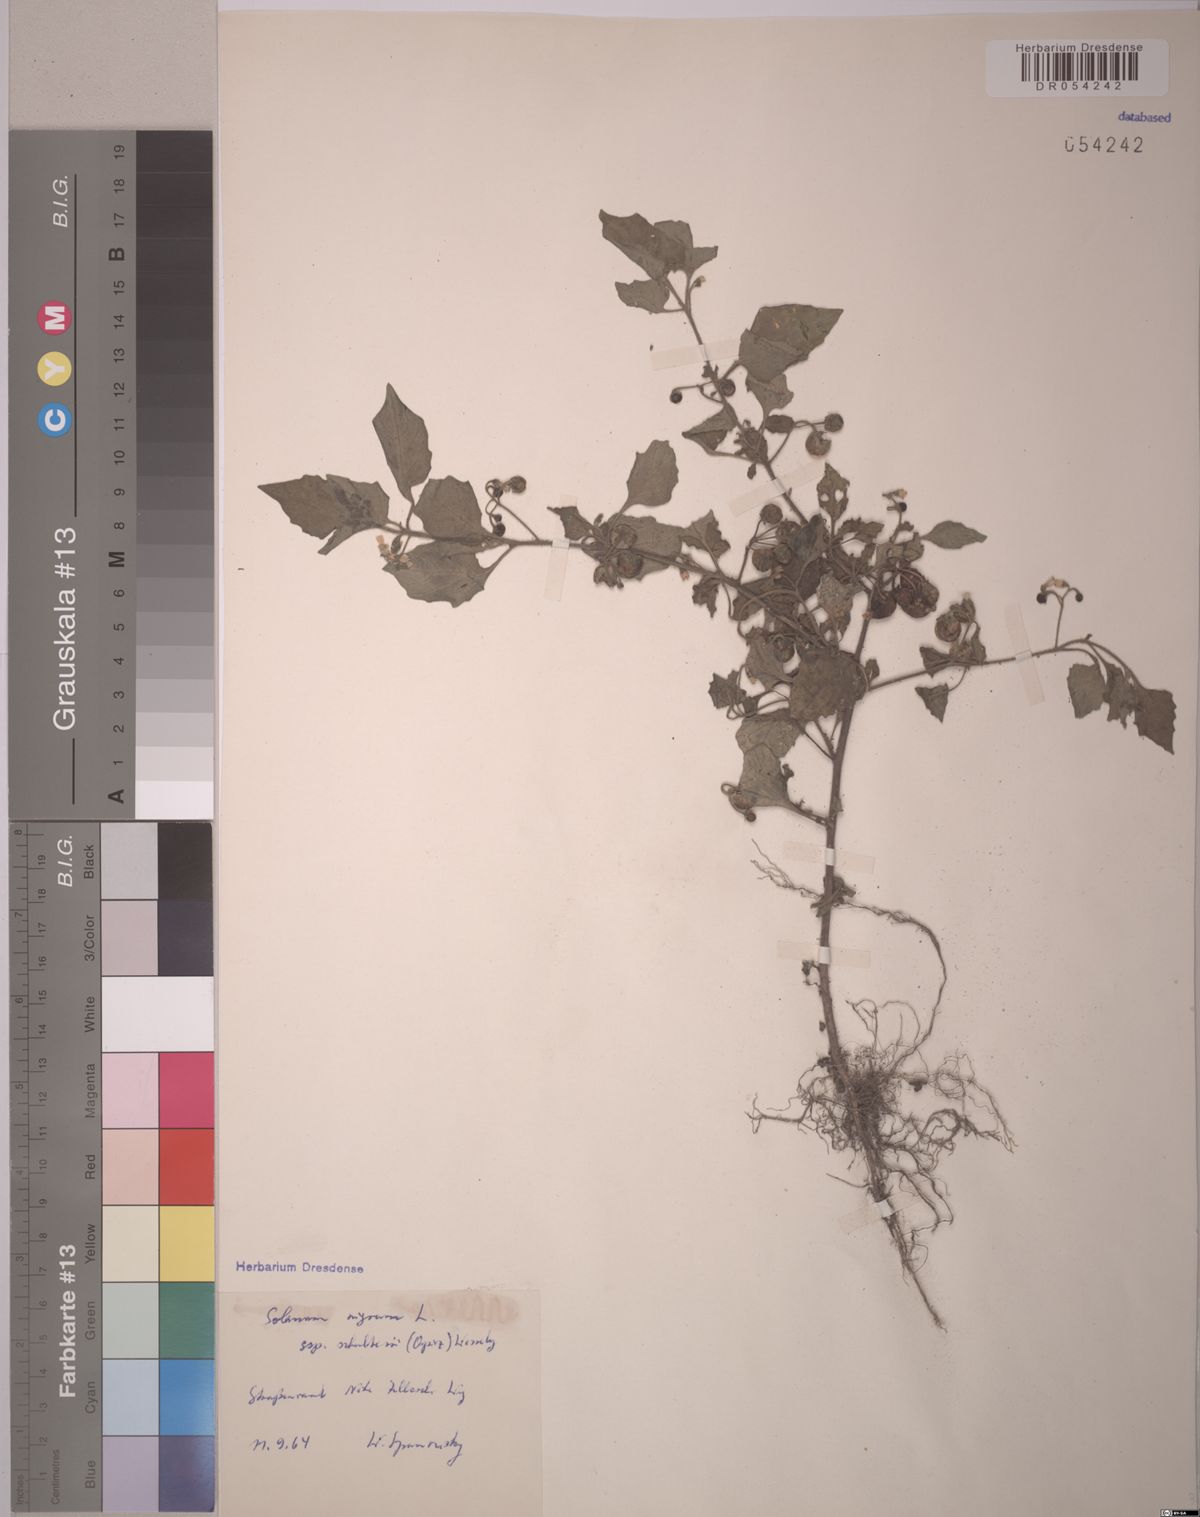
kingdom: Plantae
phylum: Tracheophyta
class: Magnoliopsida
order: Solanales
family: Solanaceae
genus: Solanum
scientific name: Solanum decipiens
